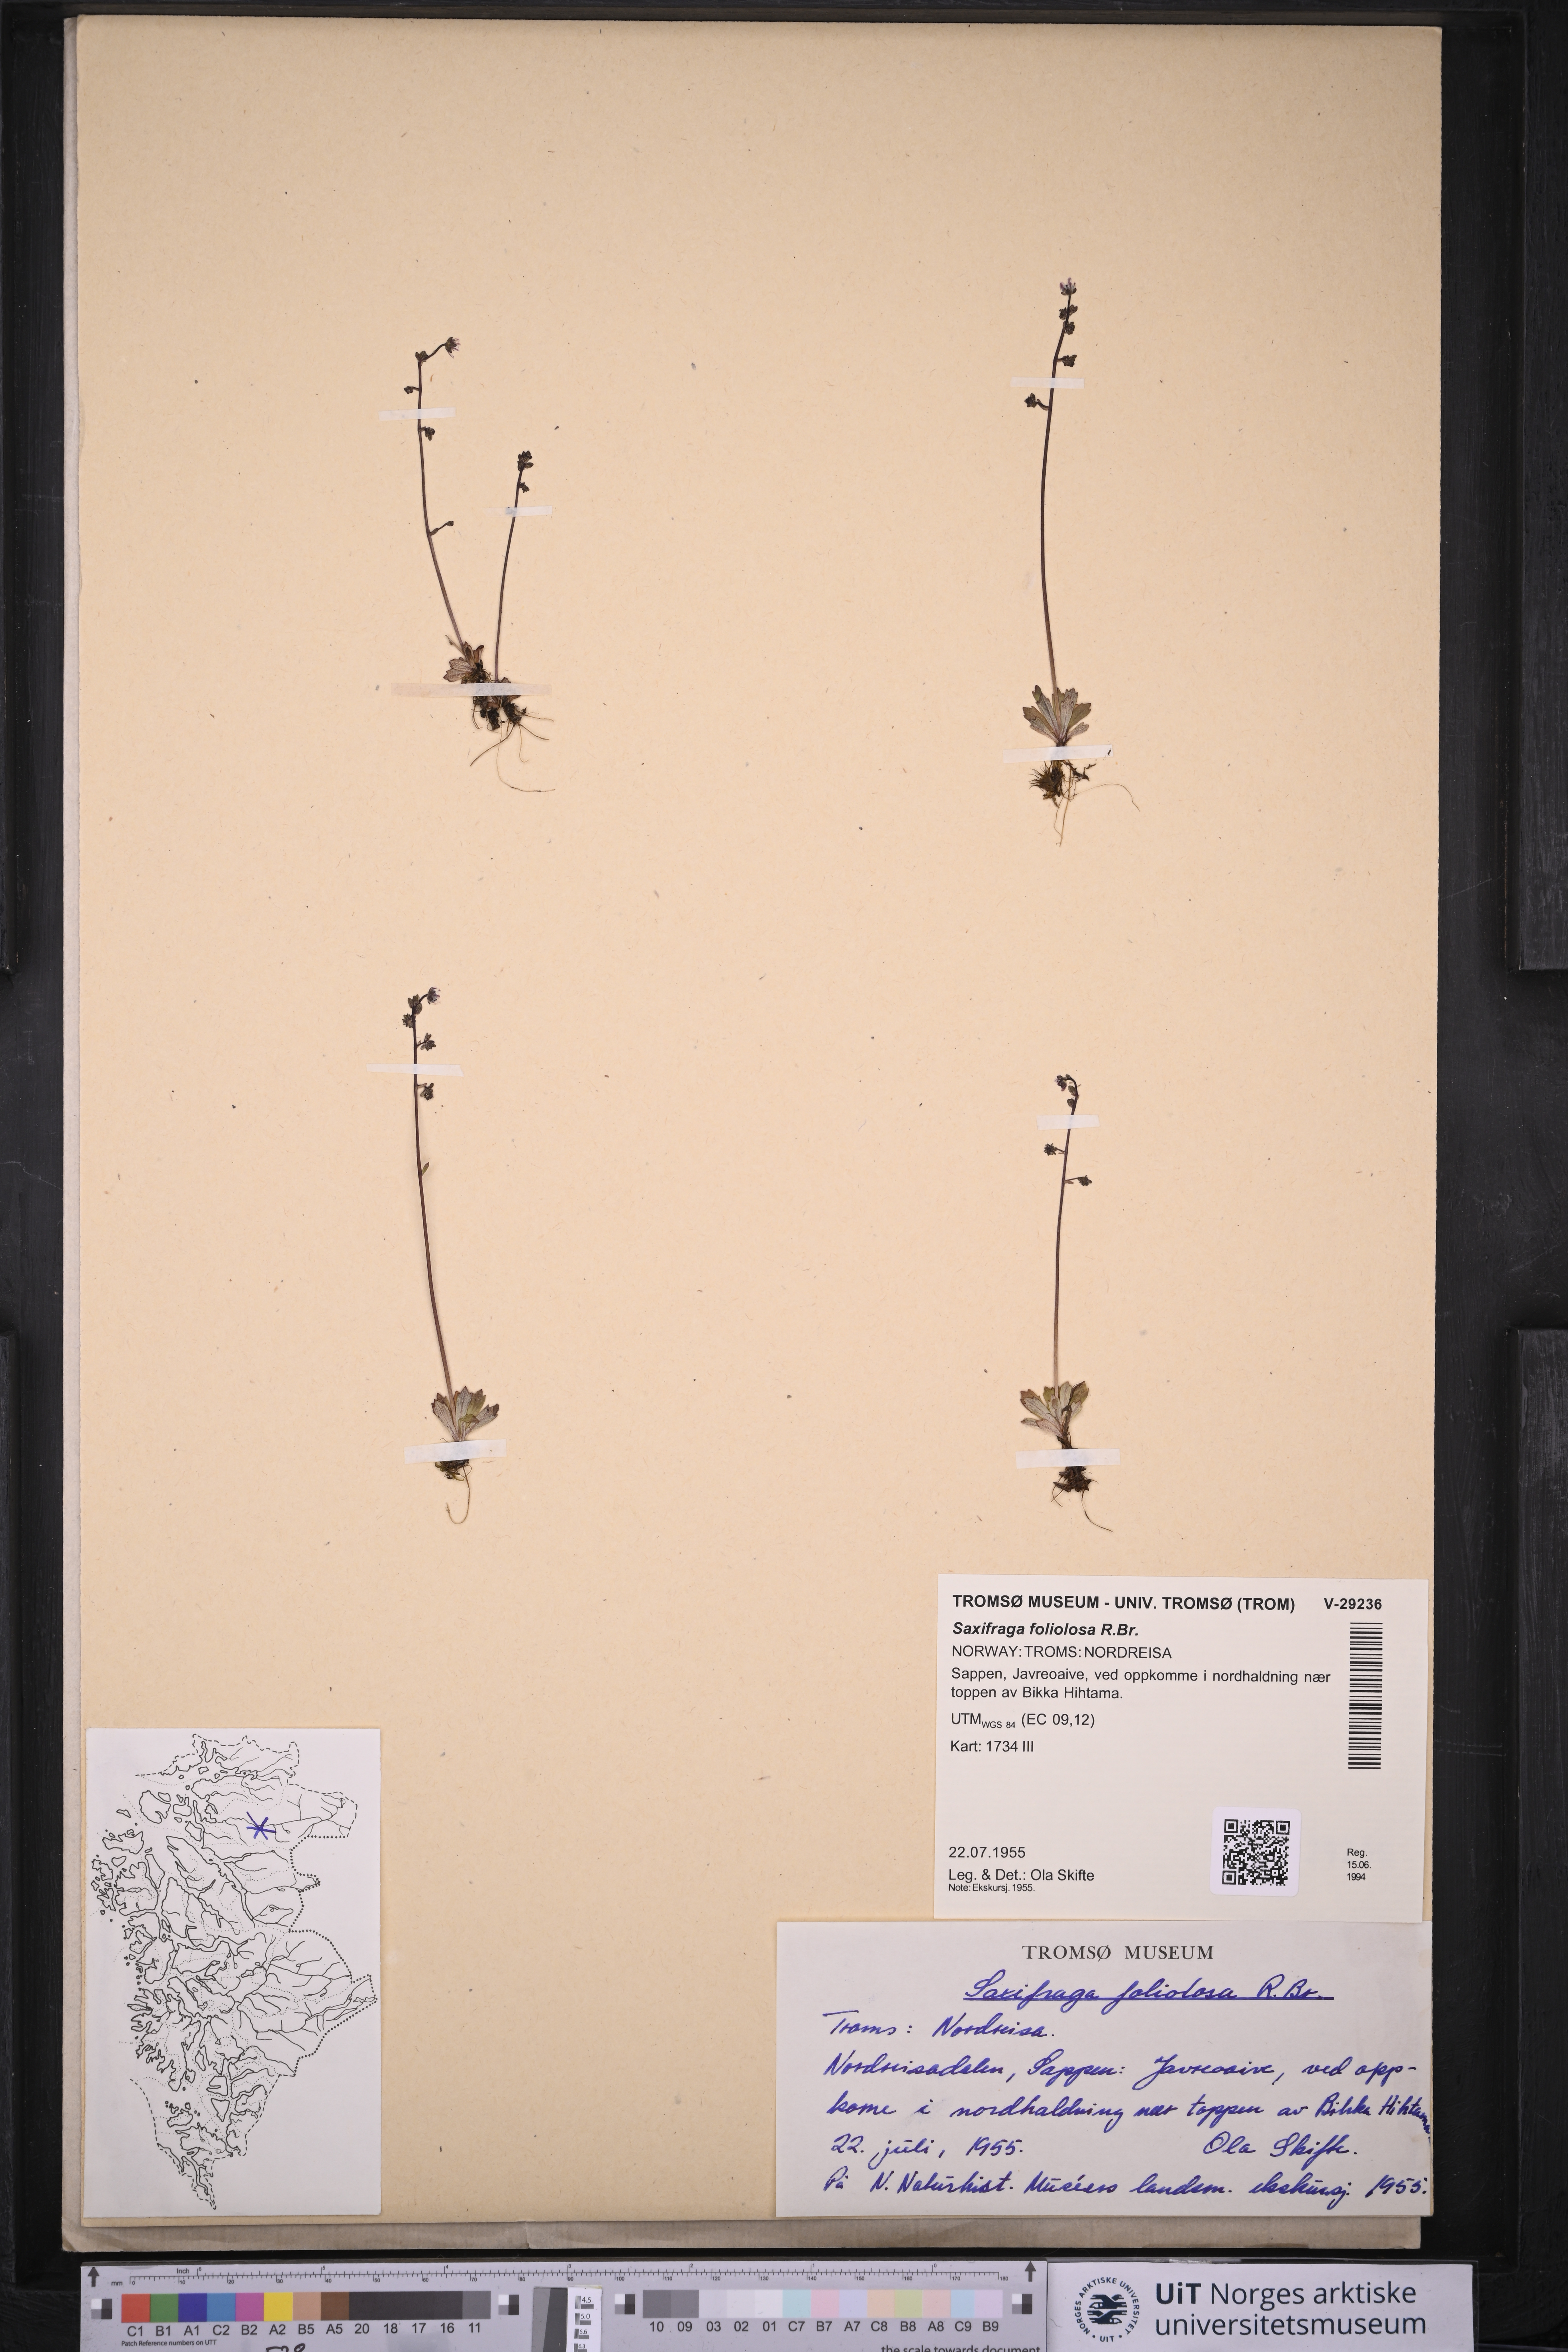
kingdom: Plantae
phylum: Tracheophyta
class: Magnoliopsida
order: Saxifragales
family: Saxifragaceae
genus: Micranthes
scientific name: Micranthes foliolosa
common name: Leafystem saxifrage
